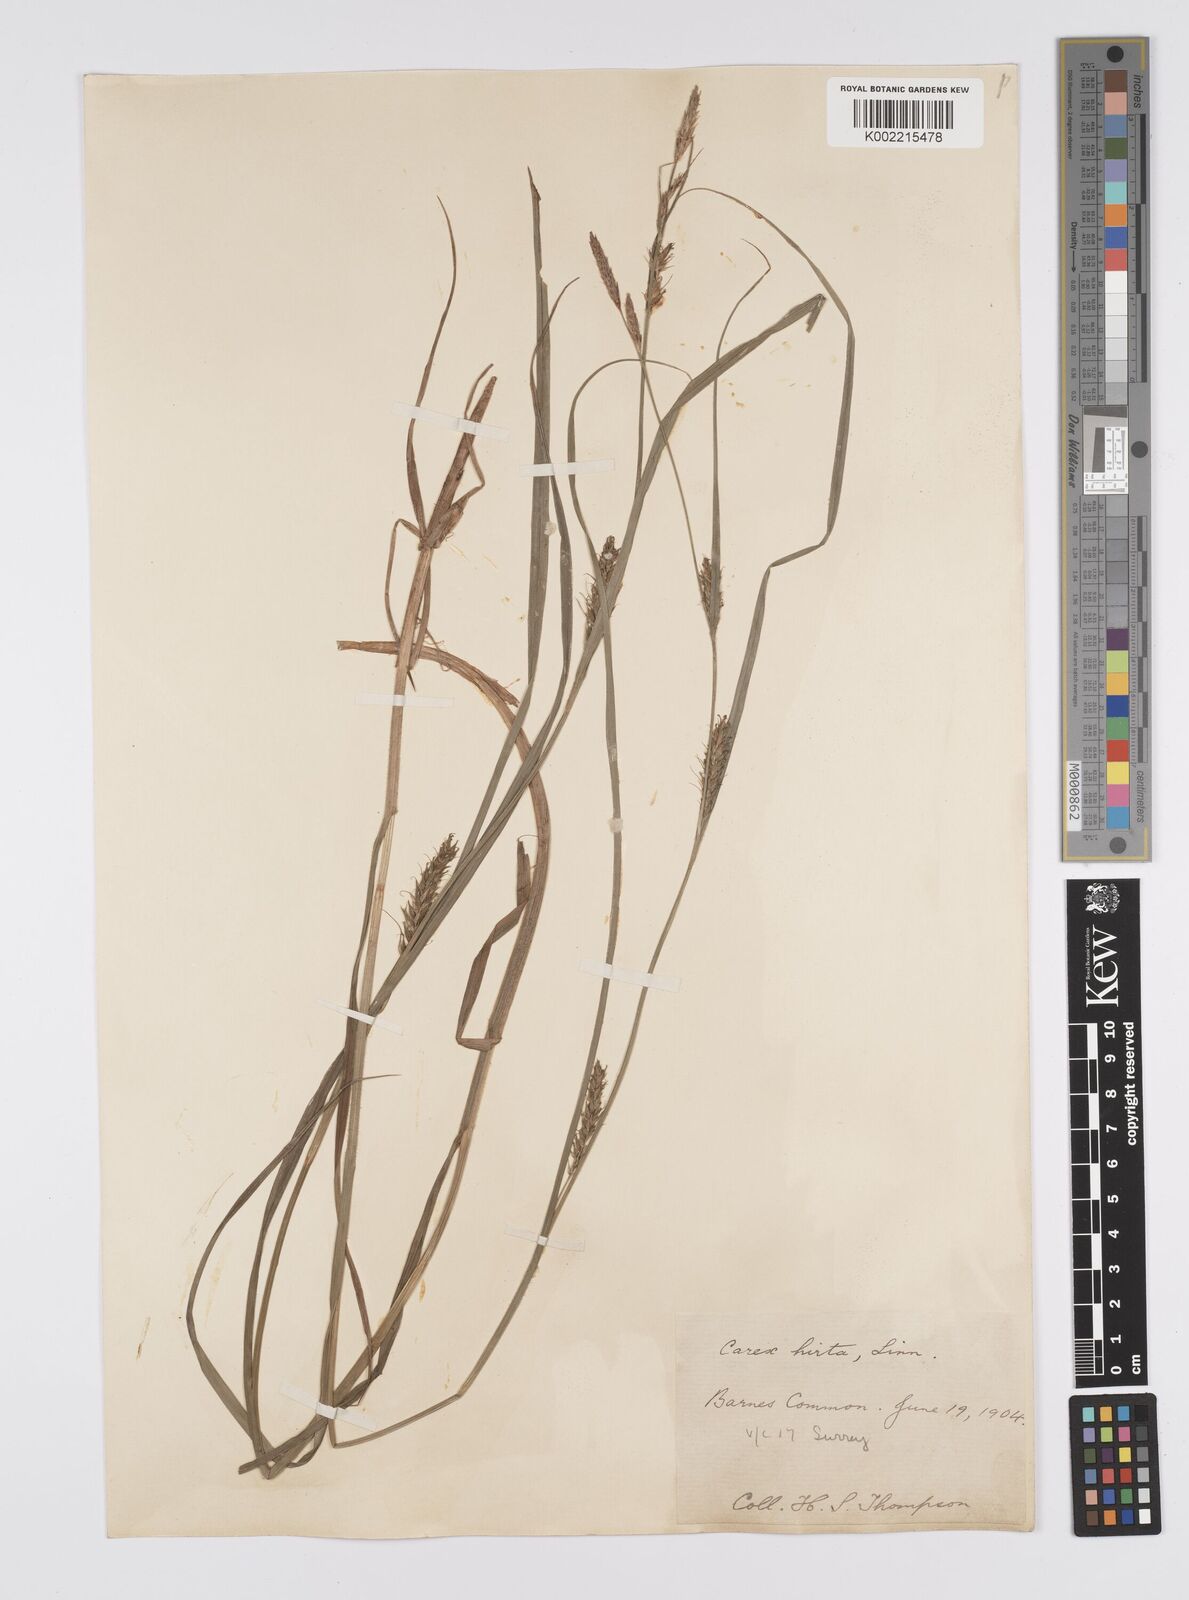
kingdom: Plantae
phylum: Tracheophyta
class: Liliopsida
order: Poales
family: Cyperaceae
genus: Carex
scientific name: Carex hirta
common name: Hairy sedge
